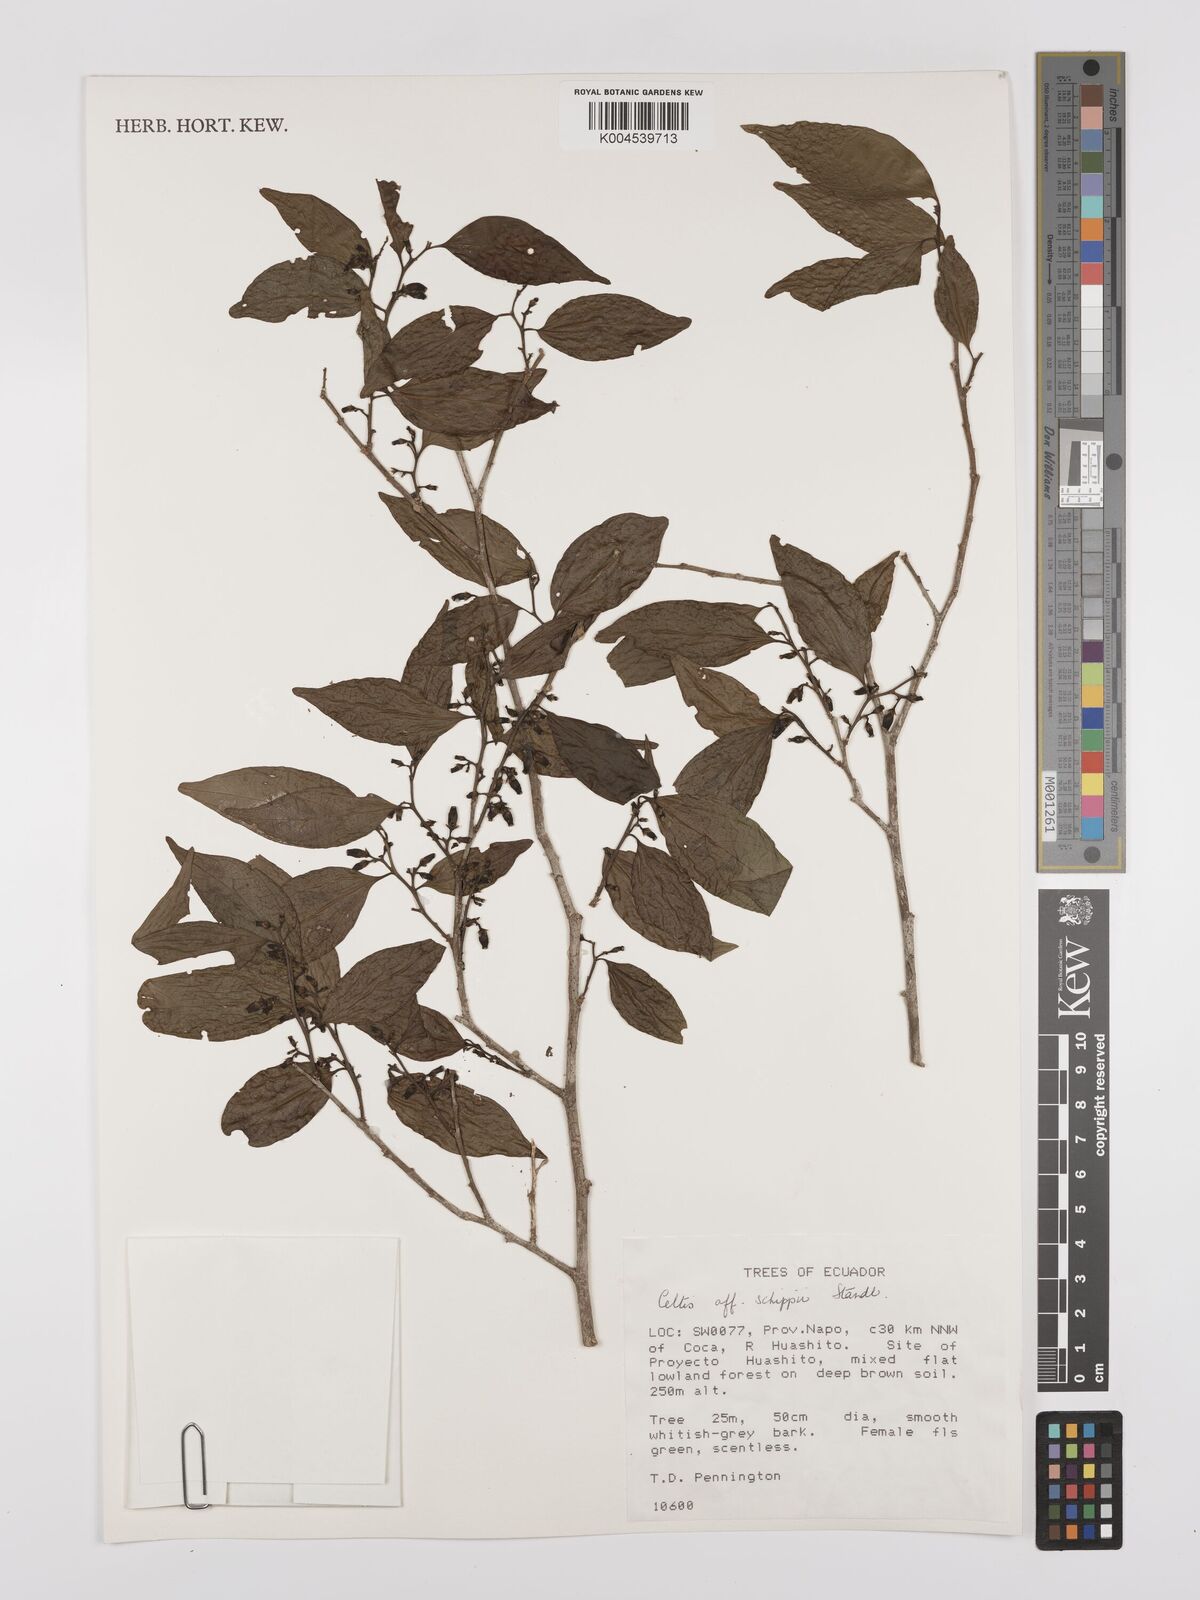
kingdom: Plantae
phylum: Tracheophyta
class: Magnoliopsida
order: Rosales
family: Cannabaceae
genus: Celtis
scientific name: Celtis schippii
